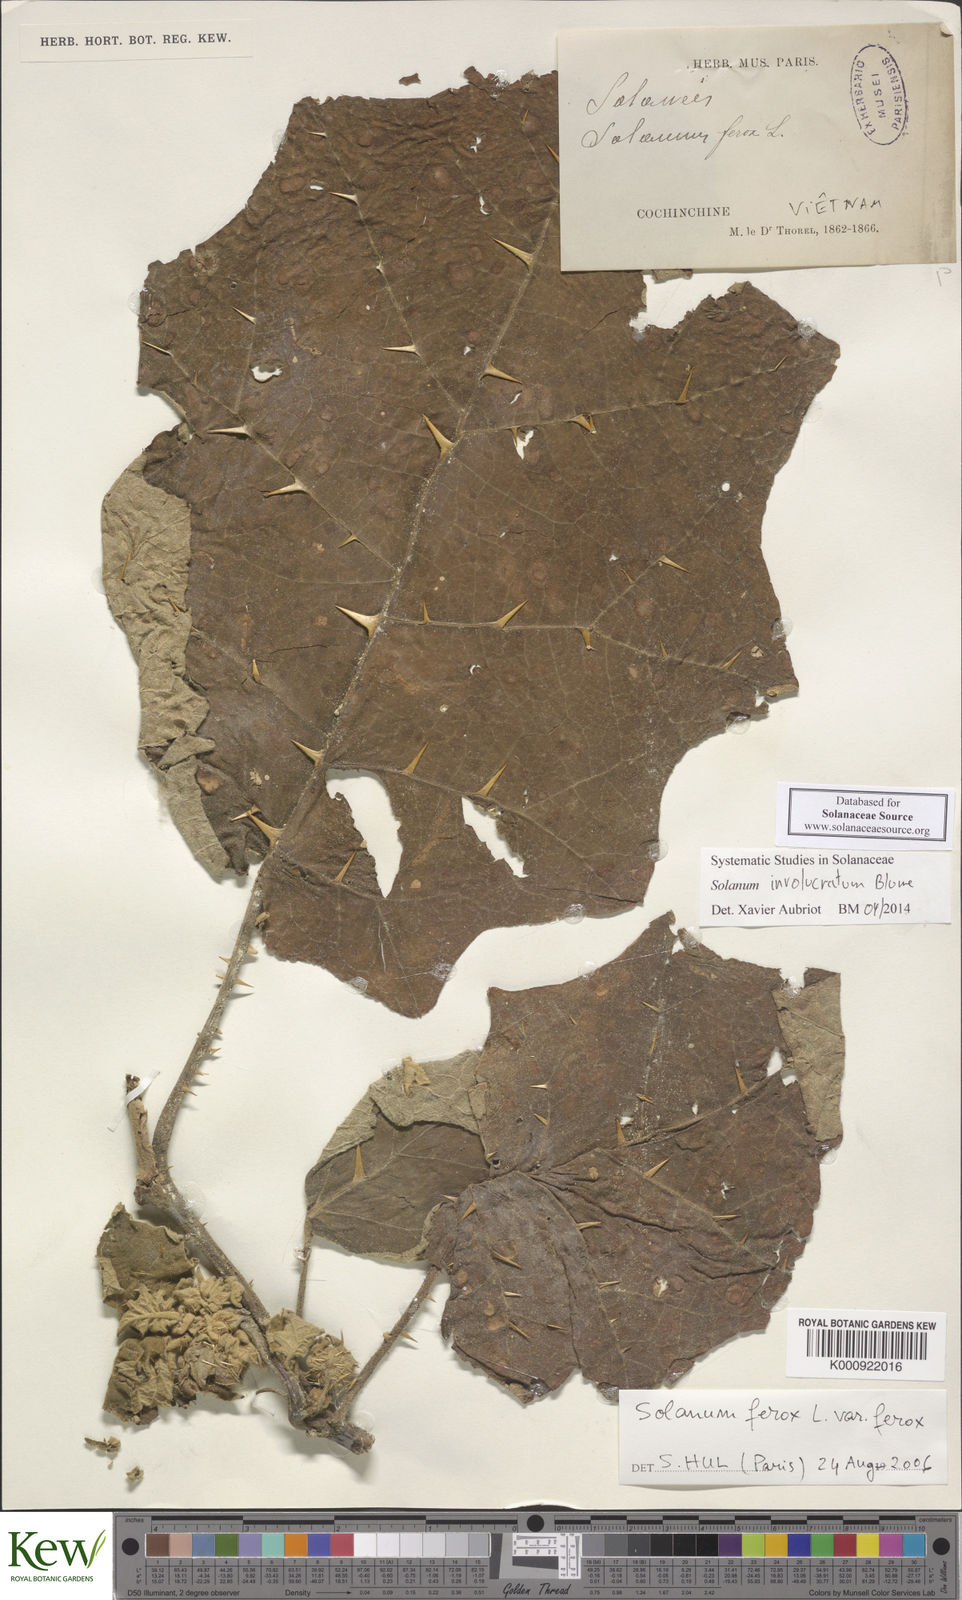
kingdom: Plantae
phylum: Tracheophyta
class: Magnoliopsida
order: Solanales
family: Solanaceae
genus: Solanum
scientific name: Solanum involucratum
